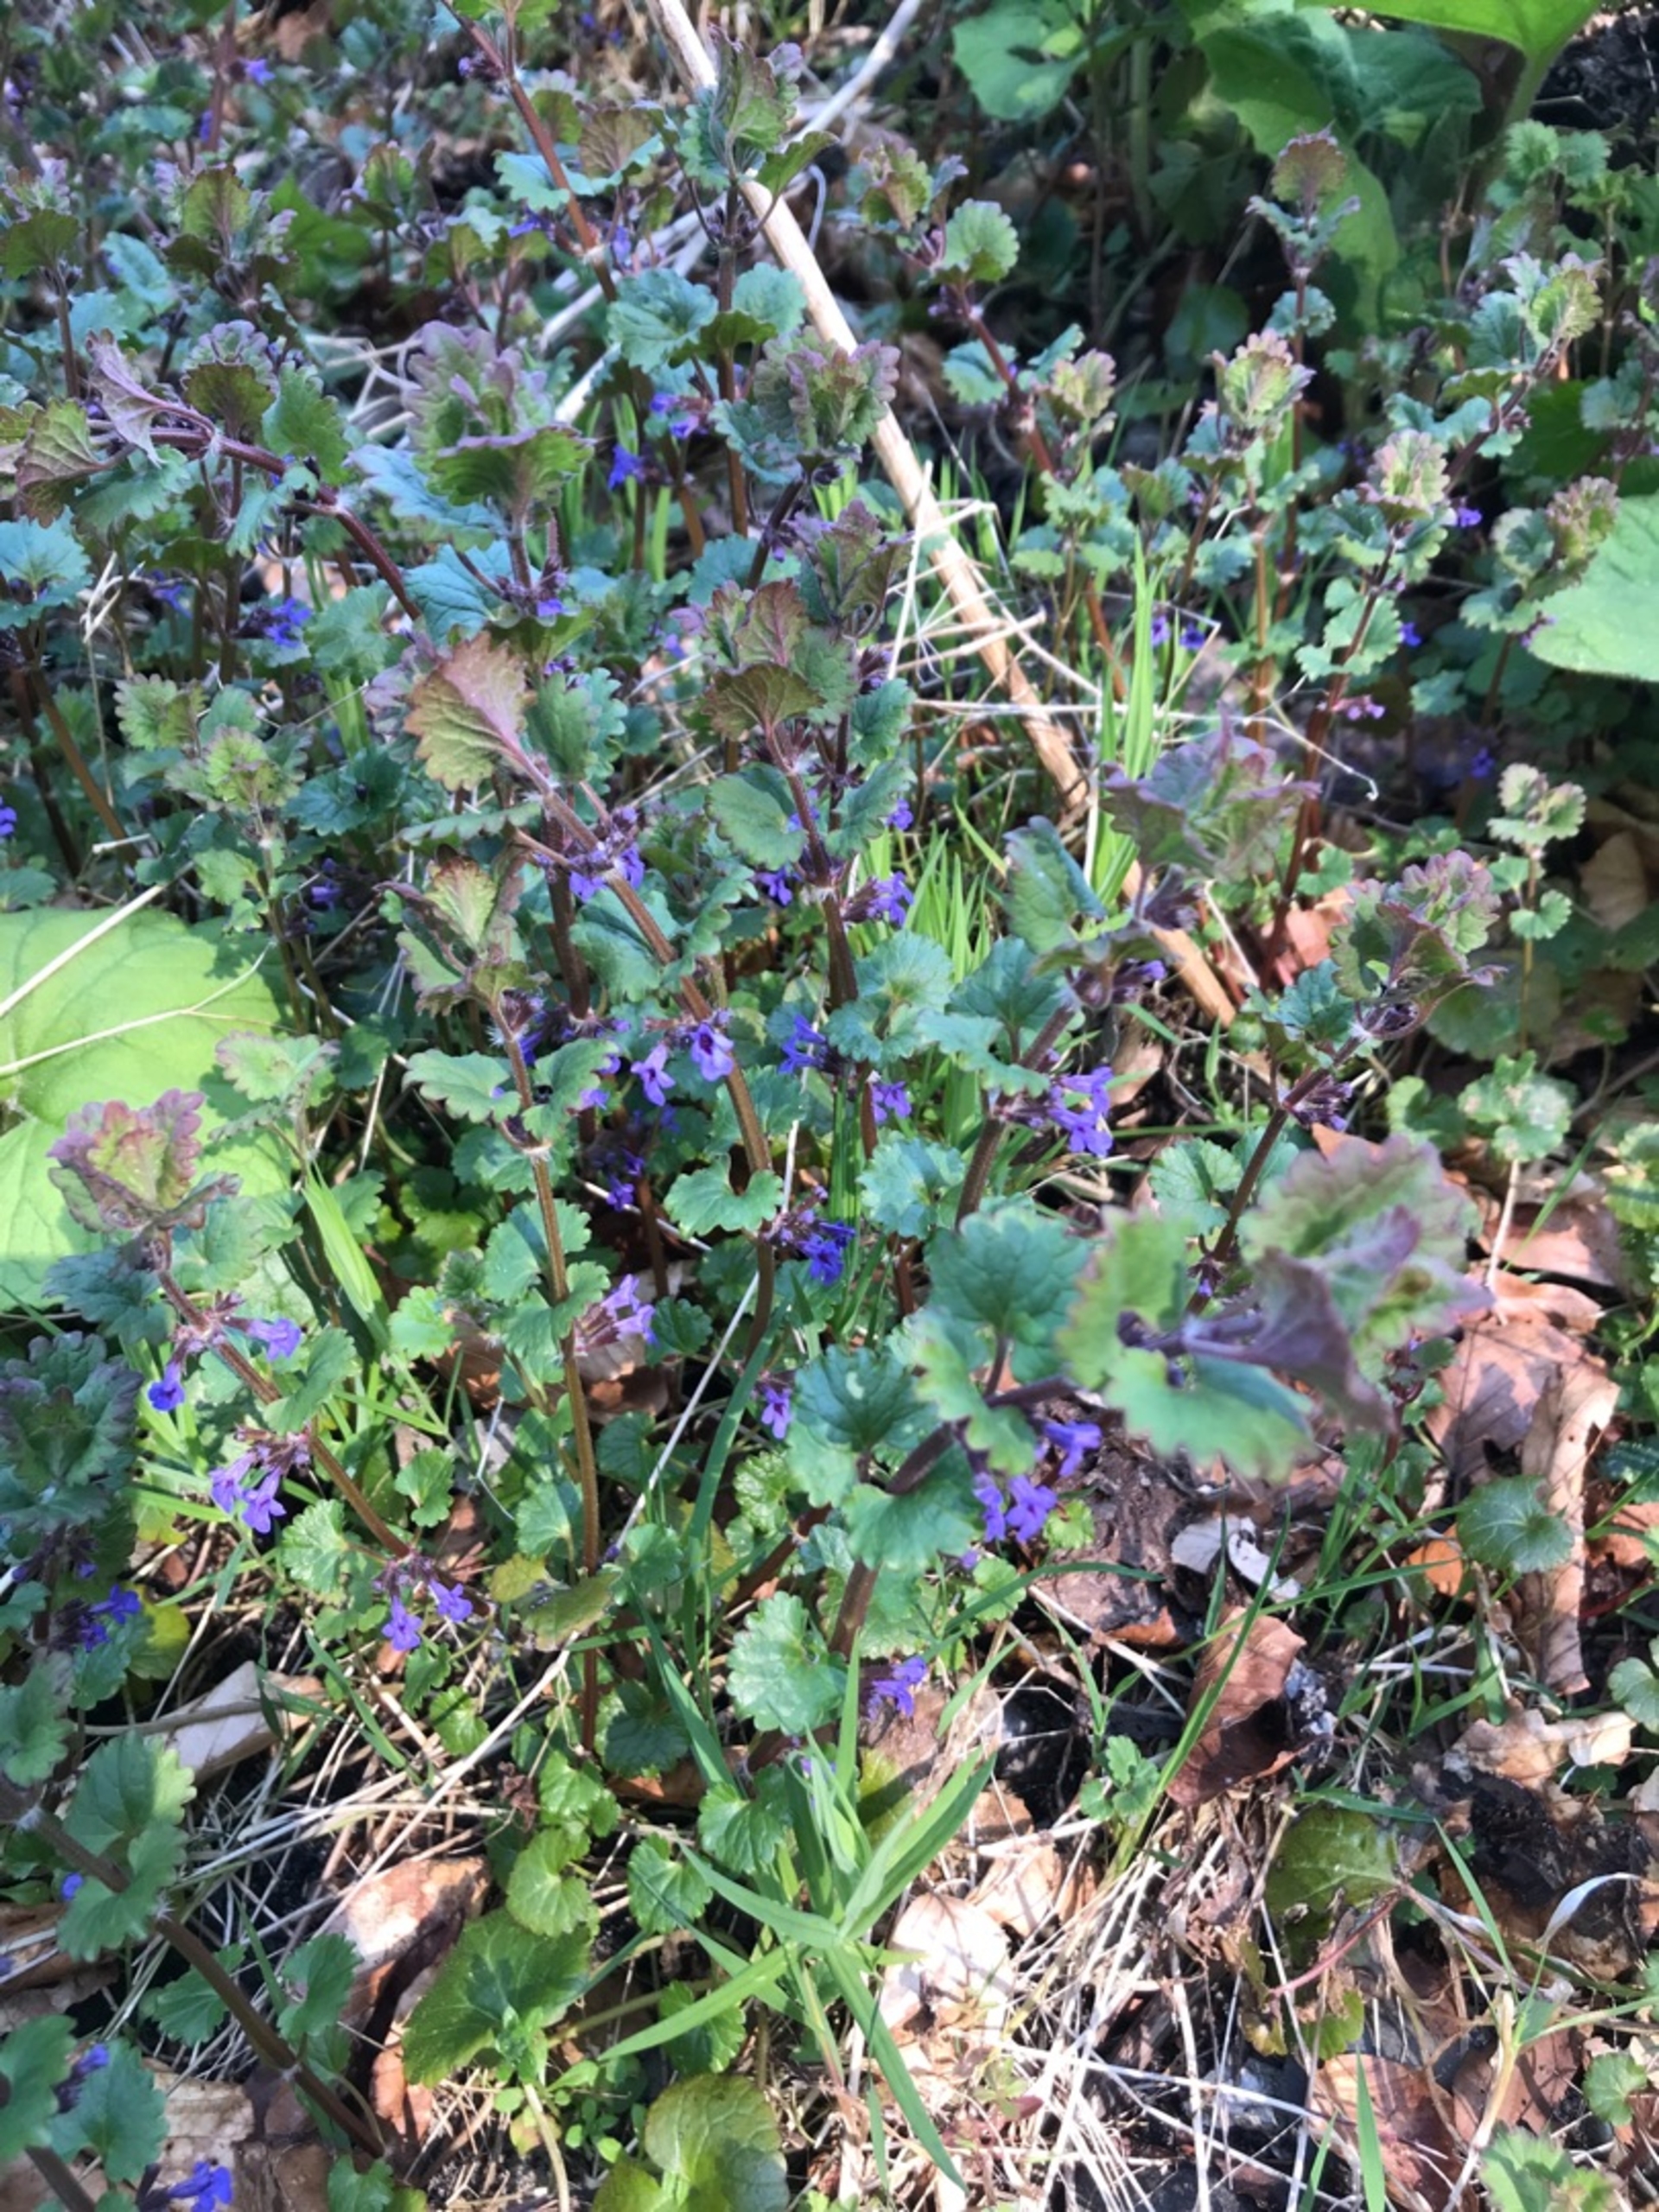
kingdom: Plantae
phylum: Tracheophyta
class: Magnoliopsida
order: Lamiales
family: Lamiaceae
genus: Glechoma
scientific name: Glechoma hederacea
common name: Korsknap
